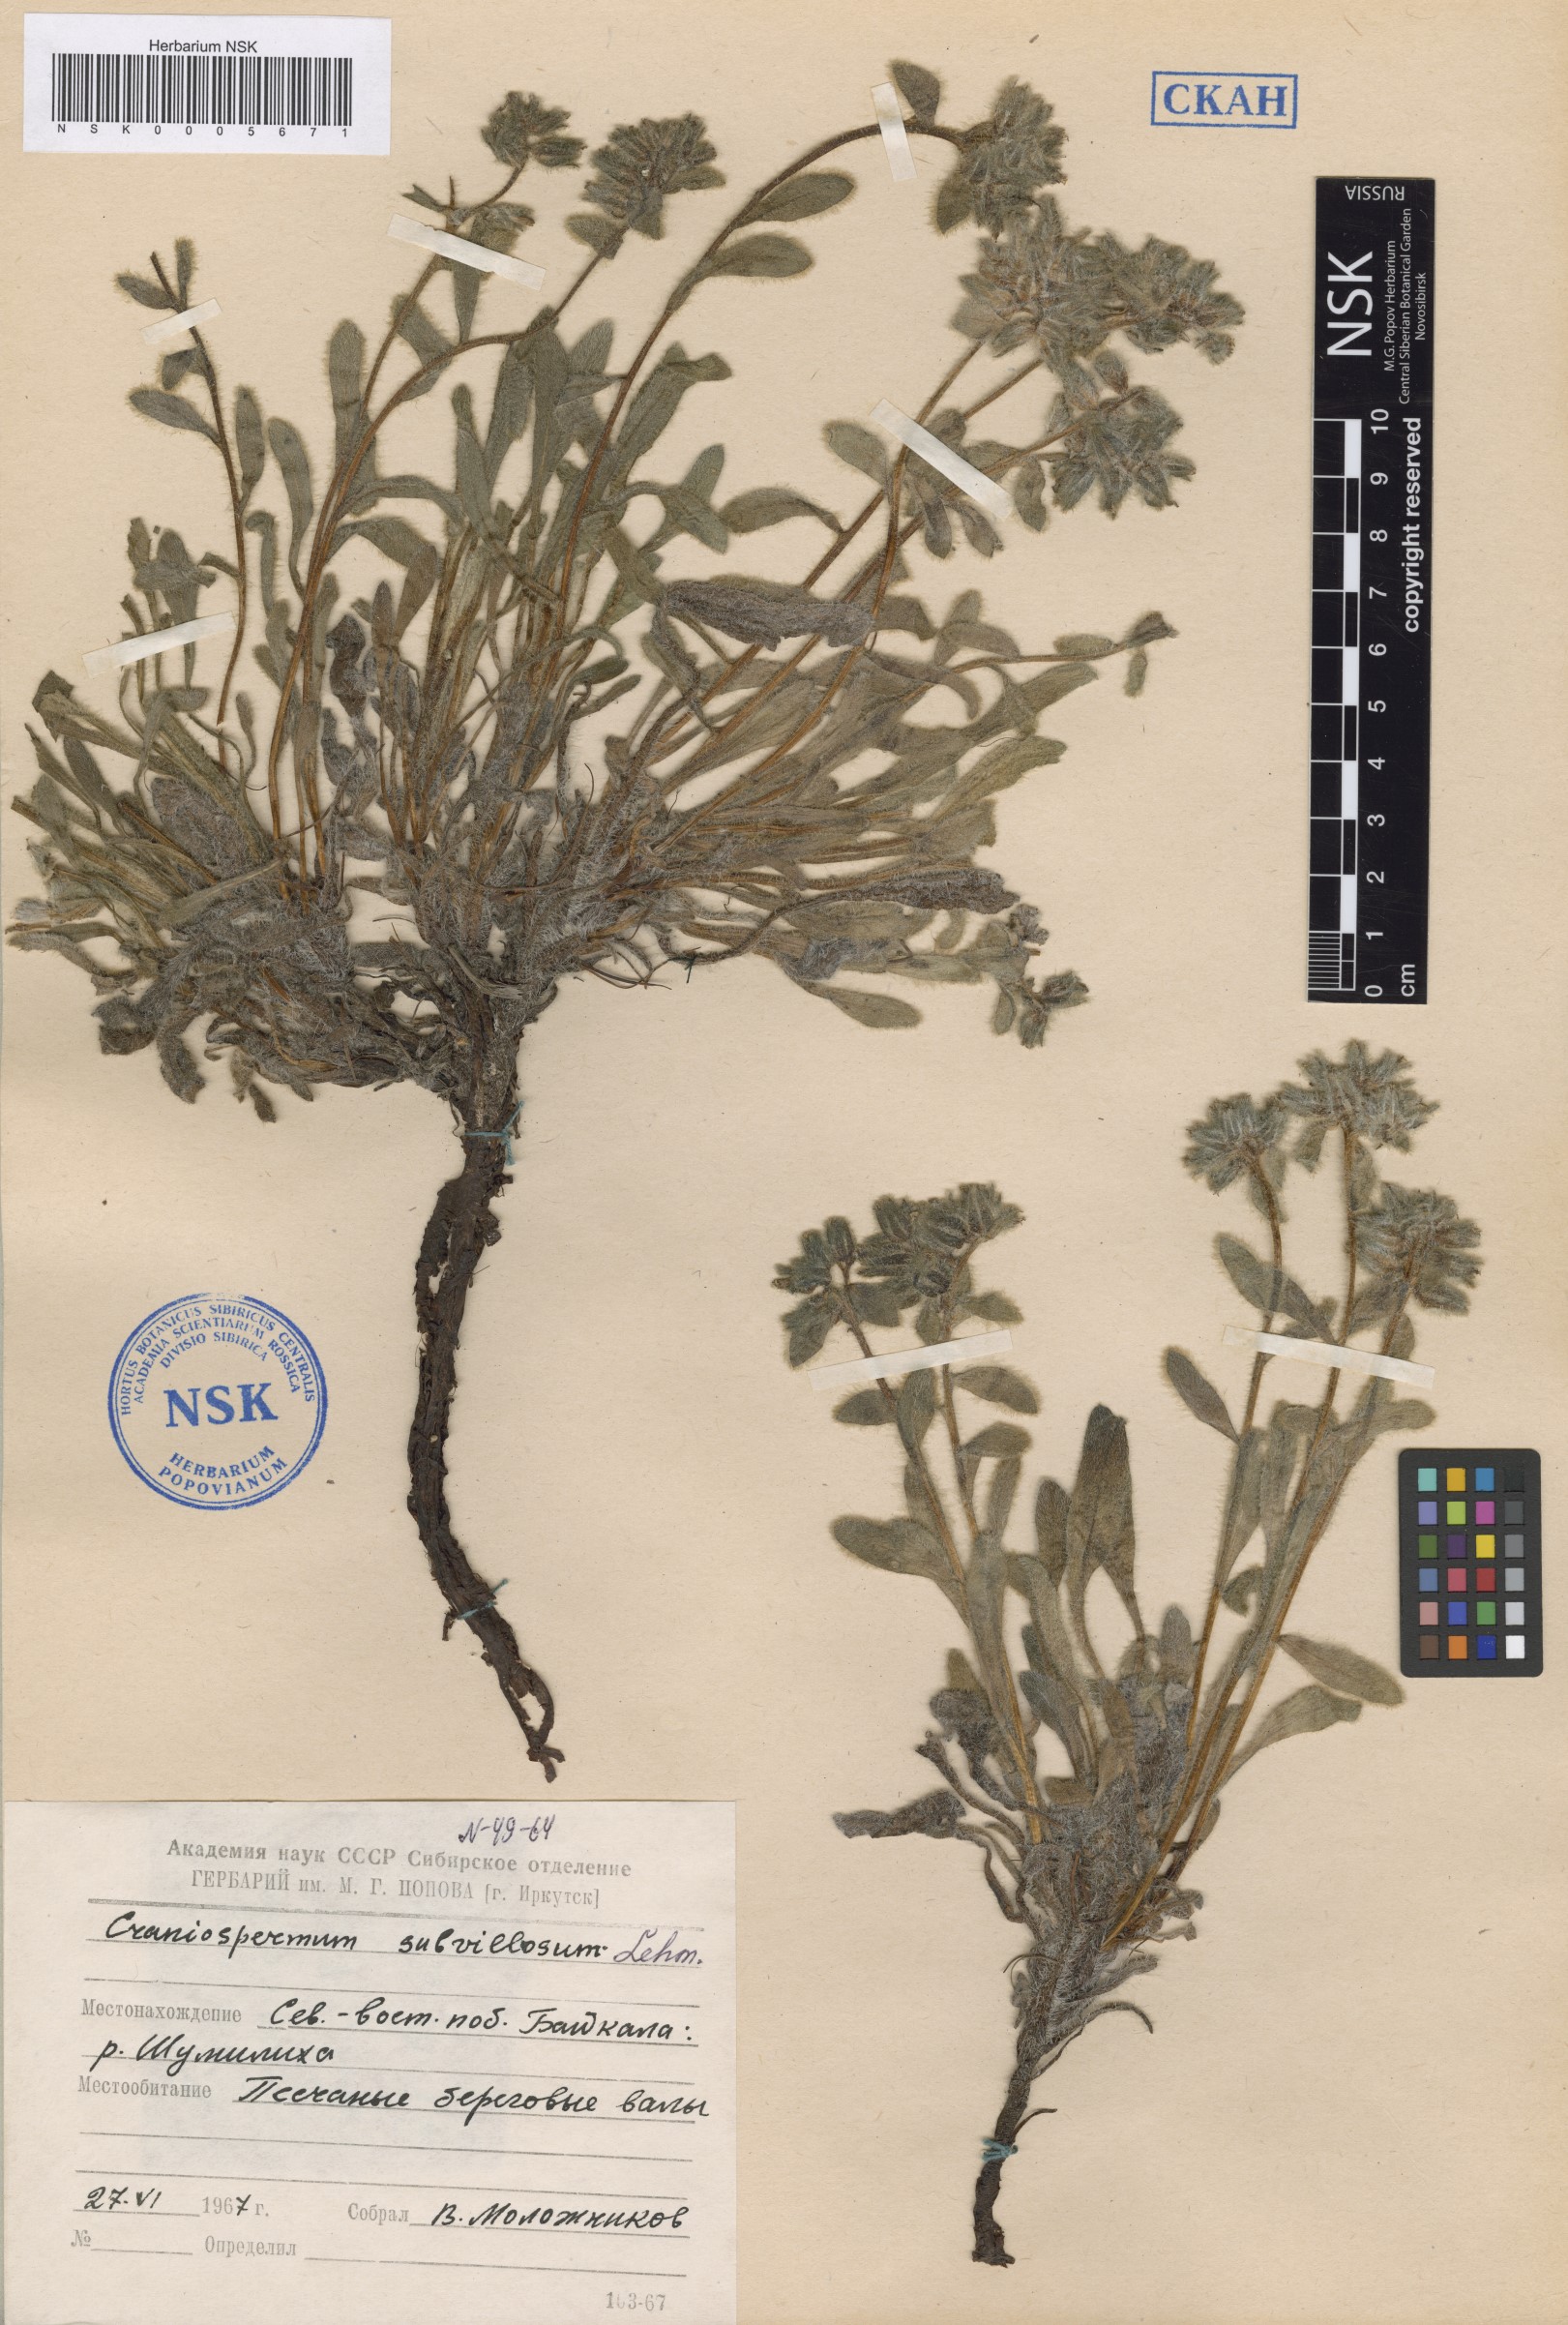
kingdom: Plantae
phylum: Tracheophyta
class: Magnoliopsida
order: Boraginales
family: Boraginaceae
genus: Craniospermum
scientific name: Craniospermum subvillosum
